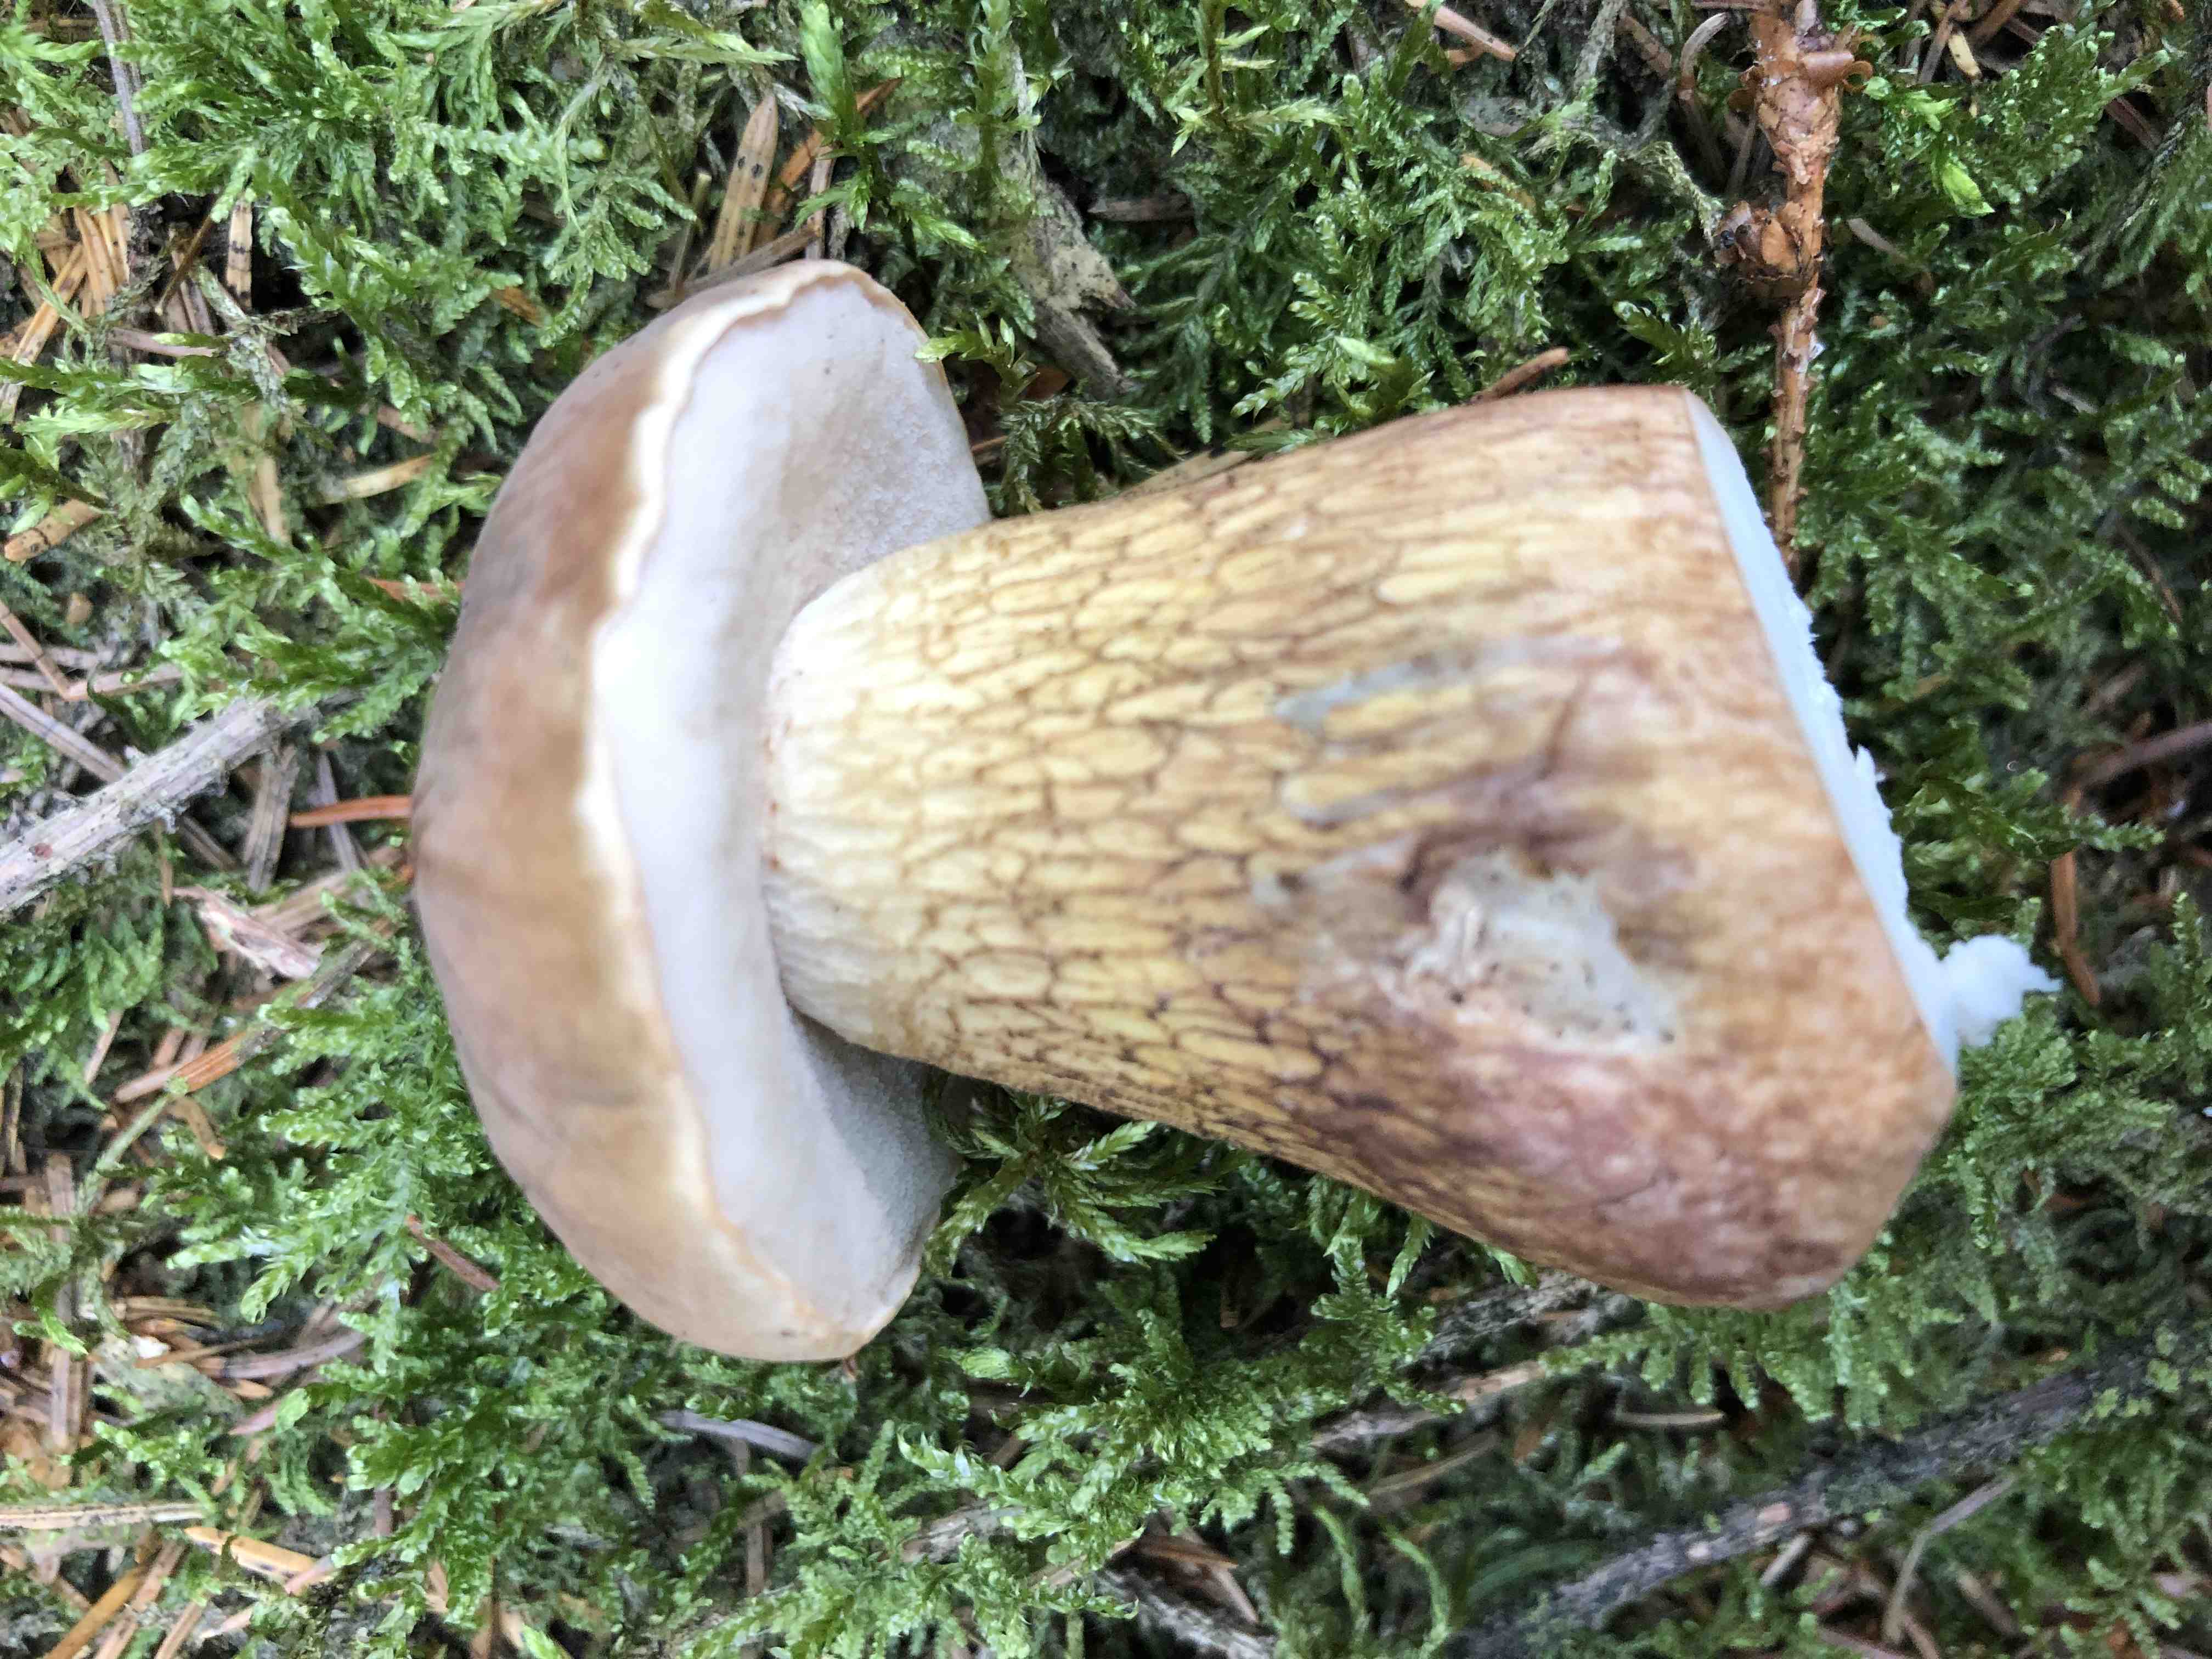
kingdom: Fungi
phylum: Basidiomycota
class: Agaricomycetes
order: Boletales
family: Boletaceae
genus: Tylopilus
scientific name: Tylopilus felleus
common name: galderørhat
